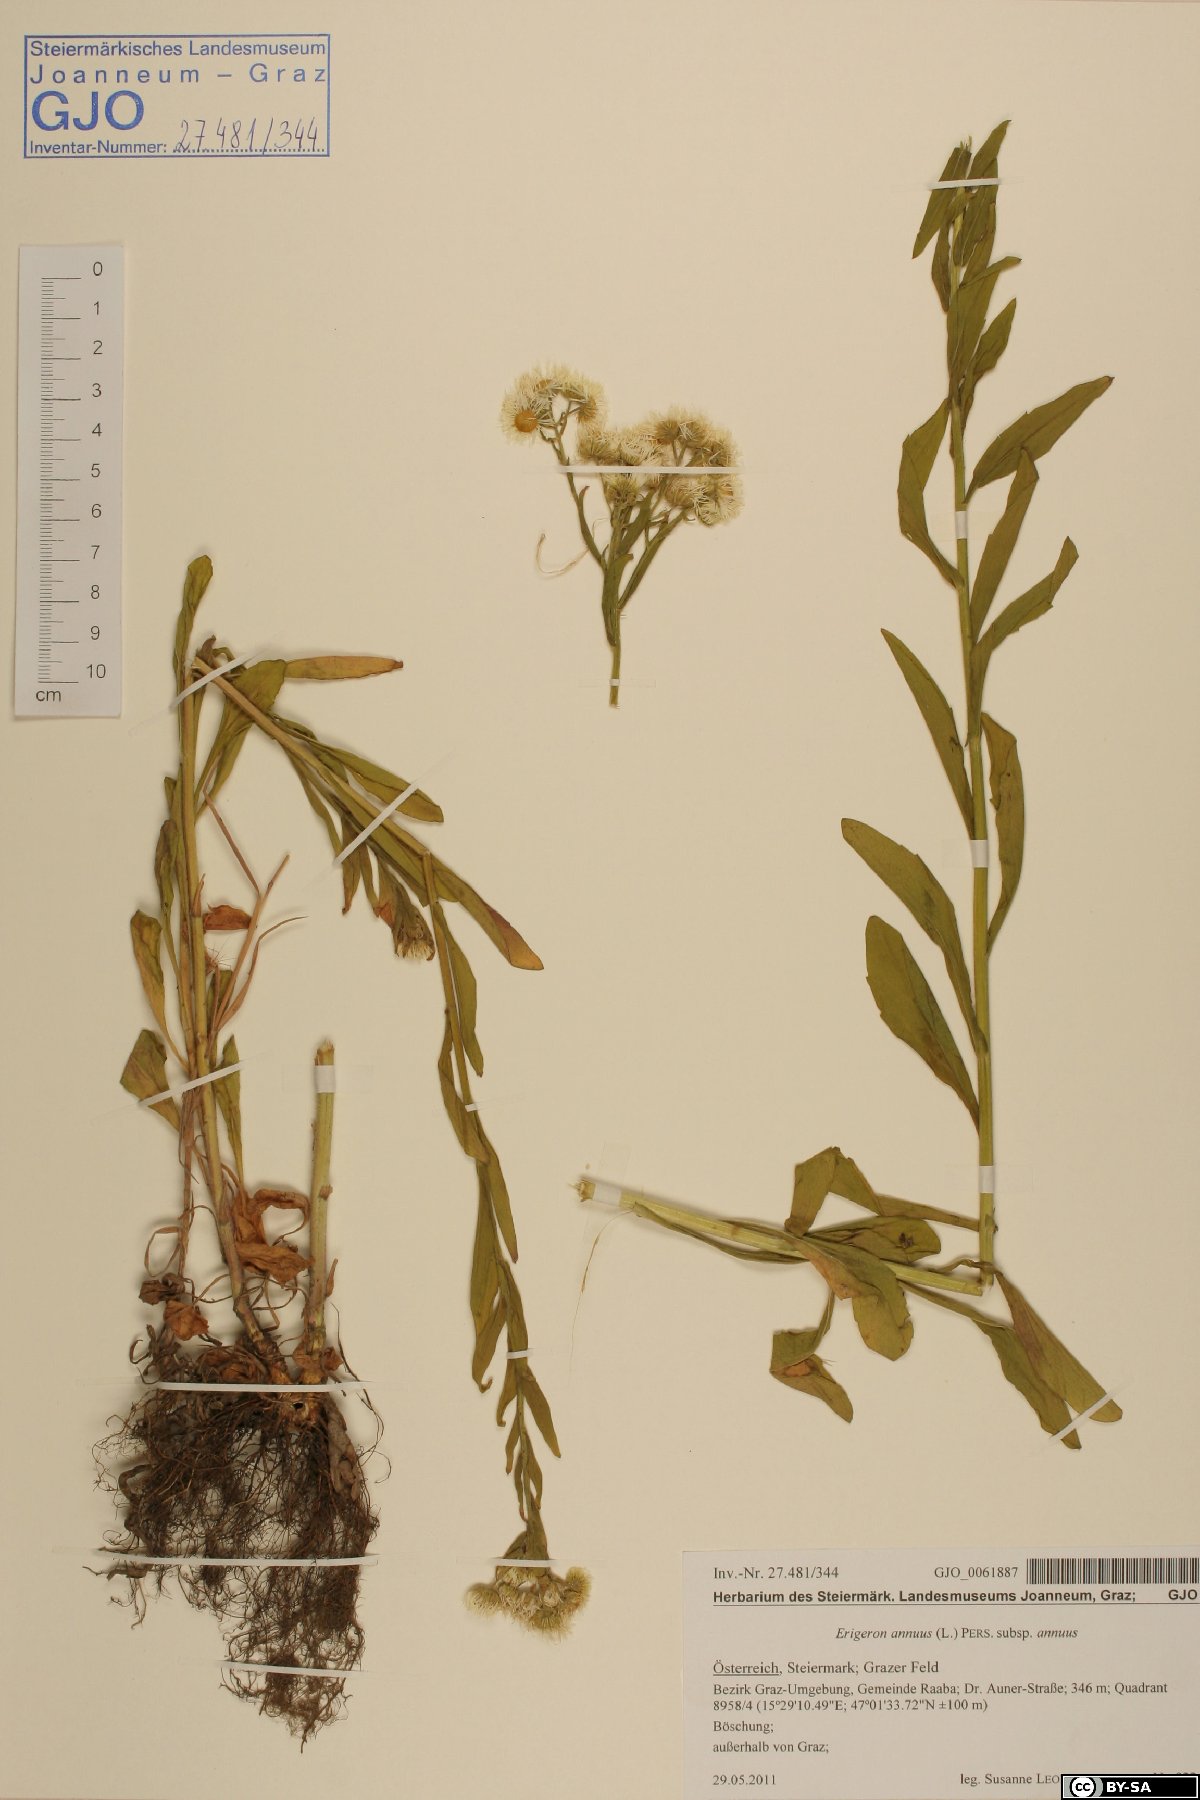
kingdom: Plantae
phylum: Tracheophyta
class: Magnoliopsida
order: Asterales
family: Asteraceae
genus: Erigeron
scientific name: Erigeron annuus
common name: Tall fleabane
